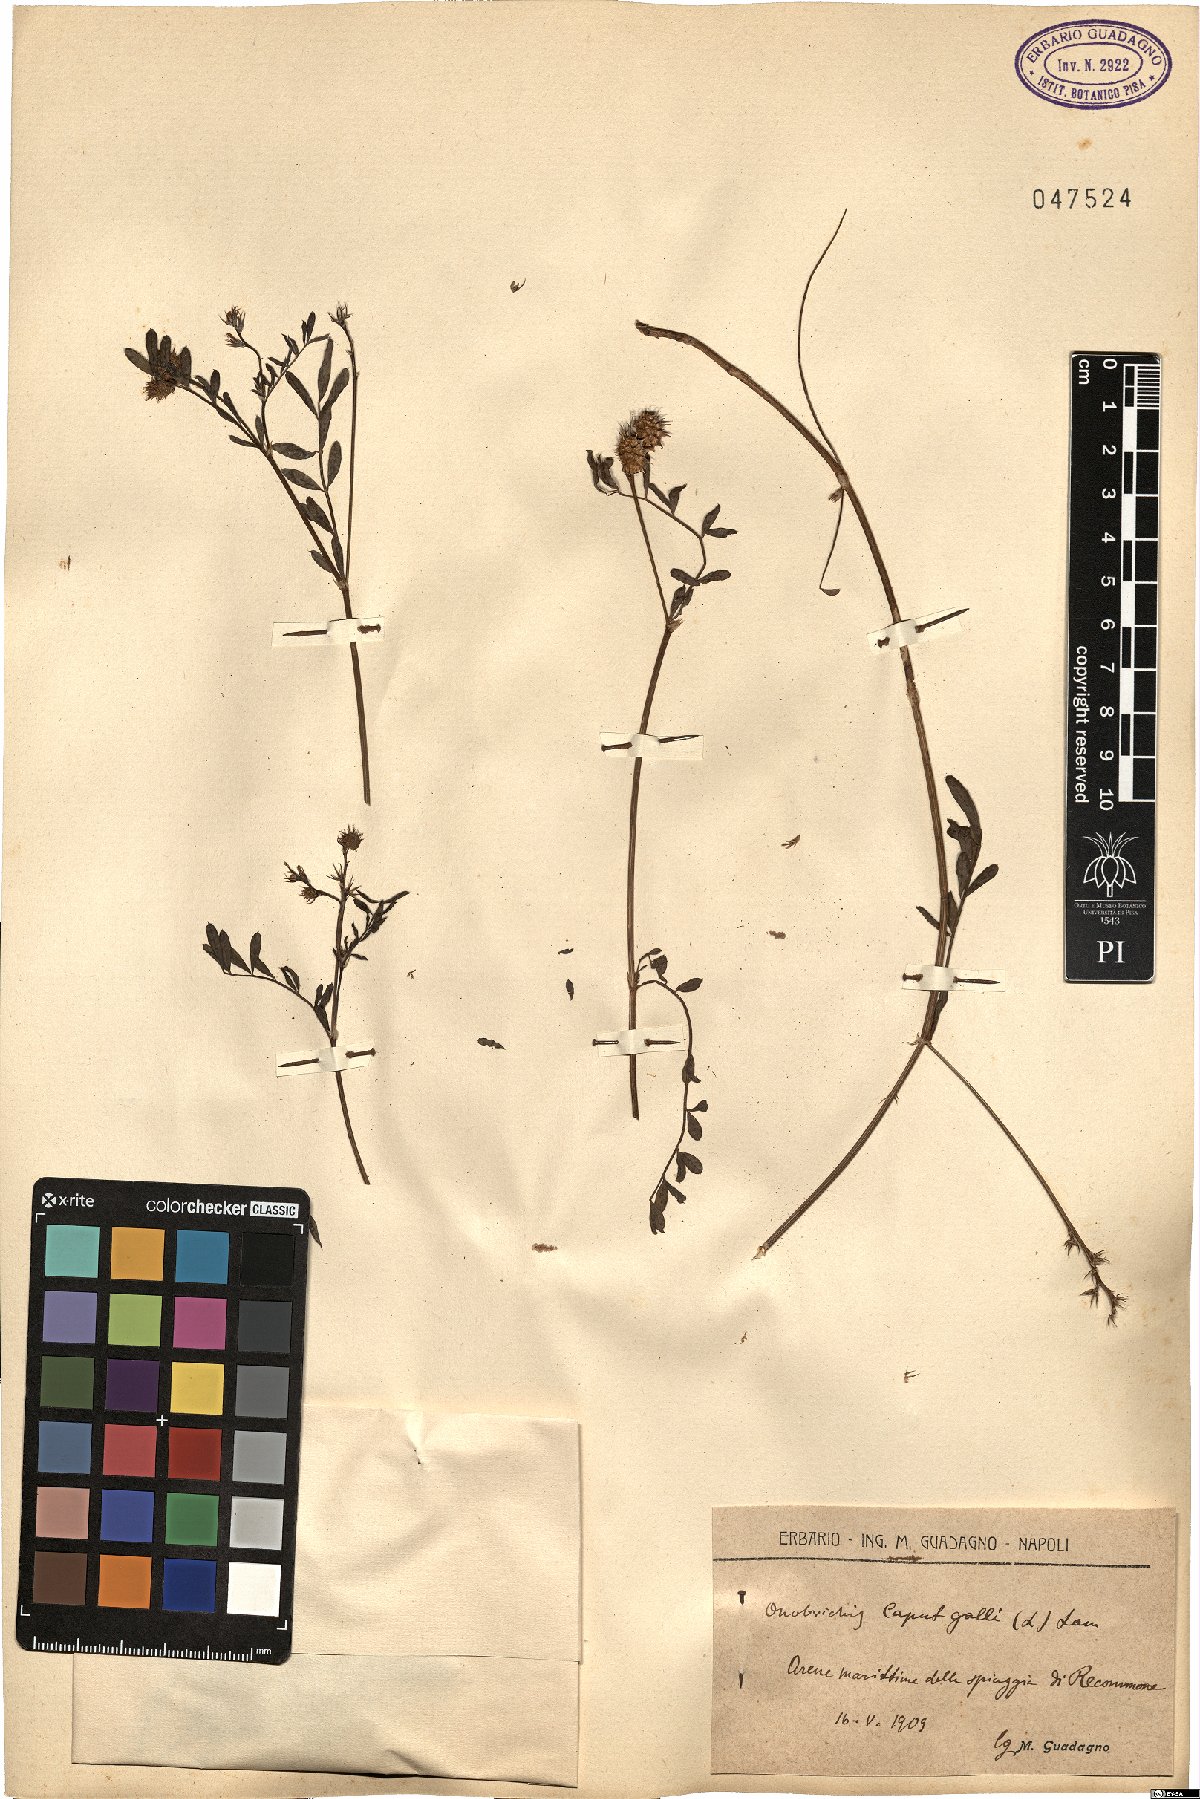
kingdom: Plantae
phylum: Tracheophyta
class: Magnoliopsida
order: Fabales
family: Fabaceae
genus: Onobrychis
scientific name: Onobrychis caput-galli
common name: Cockscomb sainfoin
